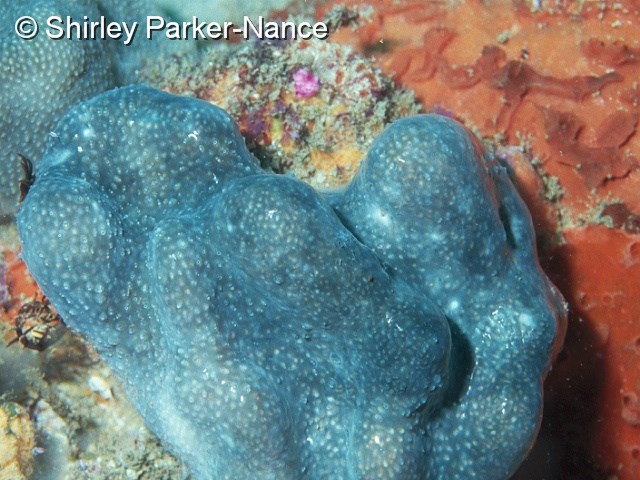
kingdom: Animalia
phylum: Chordata
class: Ascidiacea
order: Aplousobranchia
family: Pseudodistomidae
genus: Pseudodistoma
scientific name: Pseudodistoma
